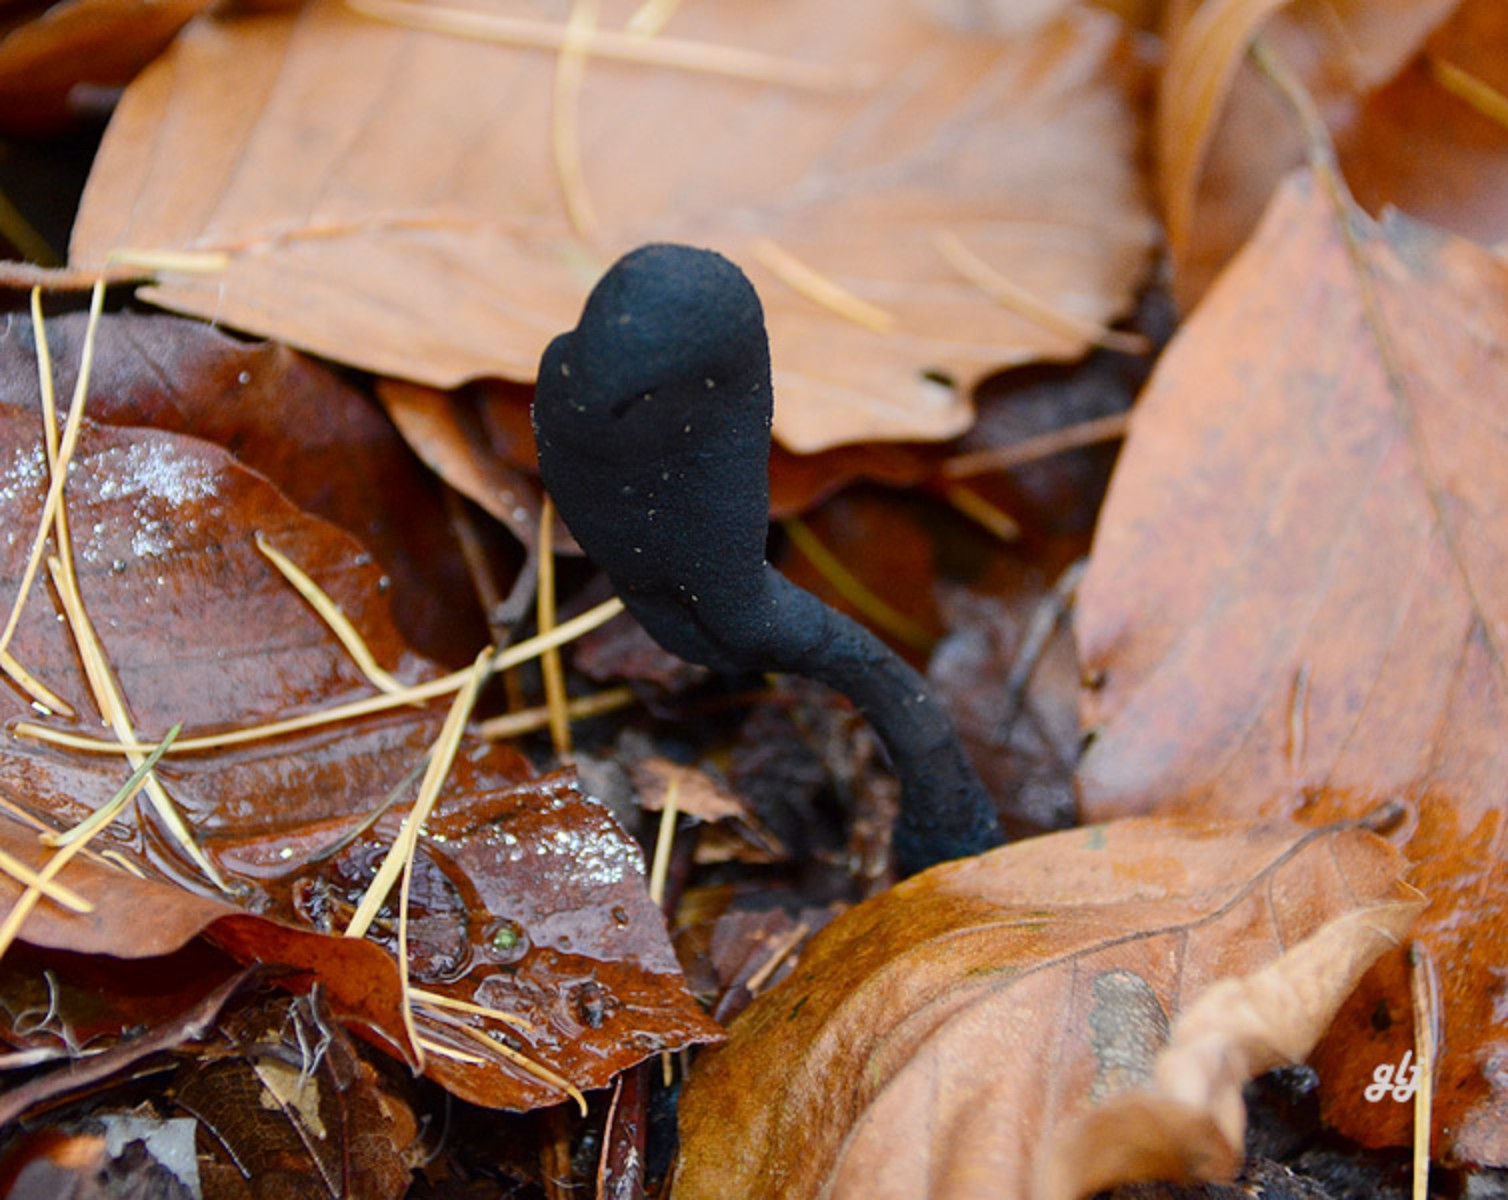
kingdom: Fungi
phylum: Ascomycota
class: Sordariomycetes
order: Xylariales
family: Xylariaceae
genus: Xylaria
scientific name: Xylaria longipes
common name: slank stødsvamp
